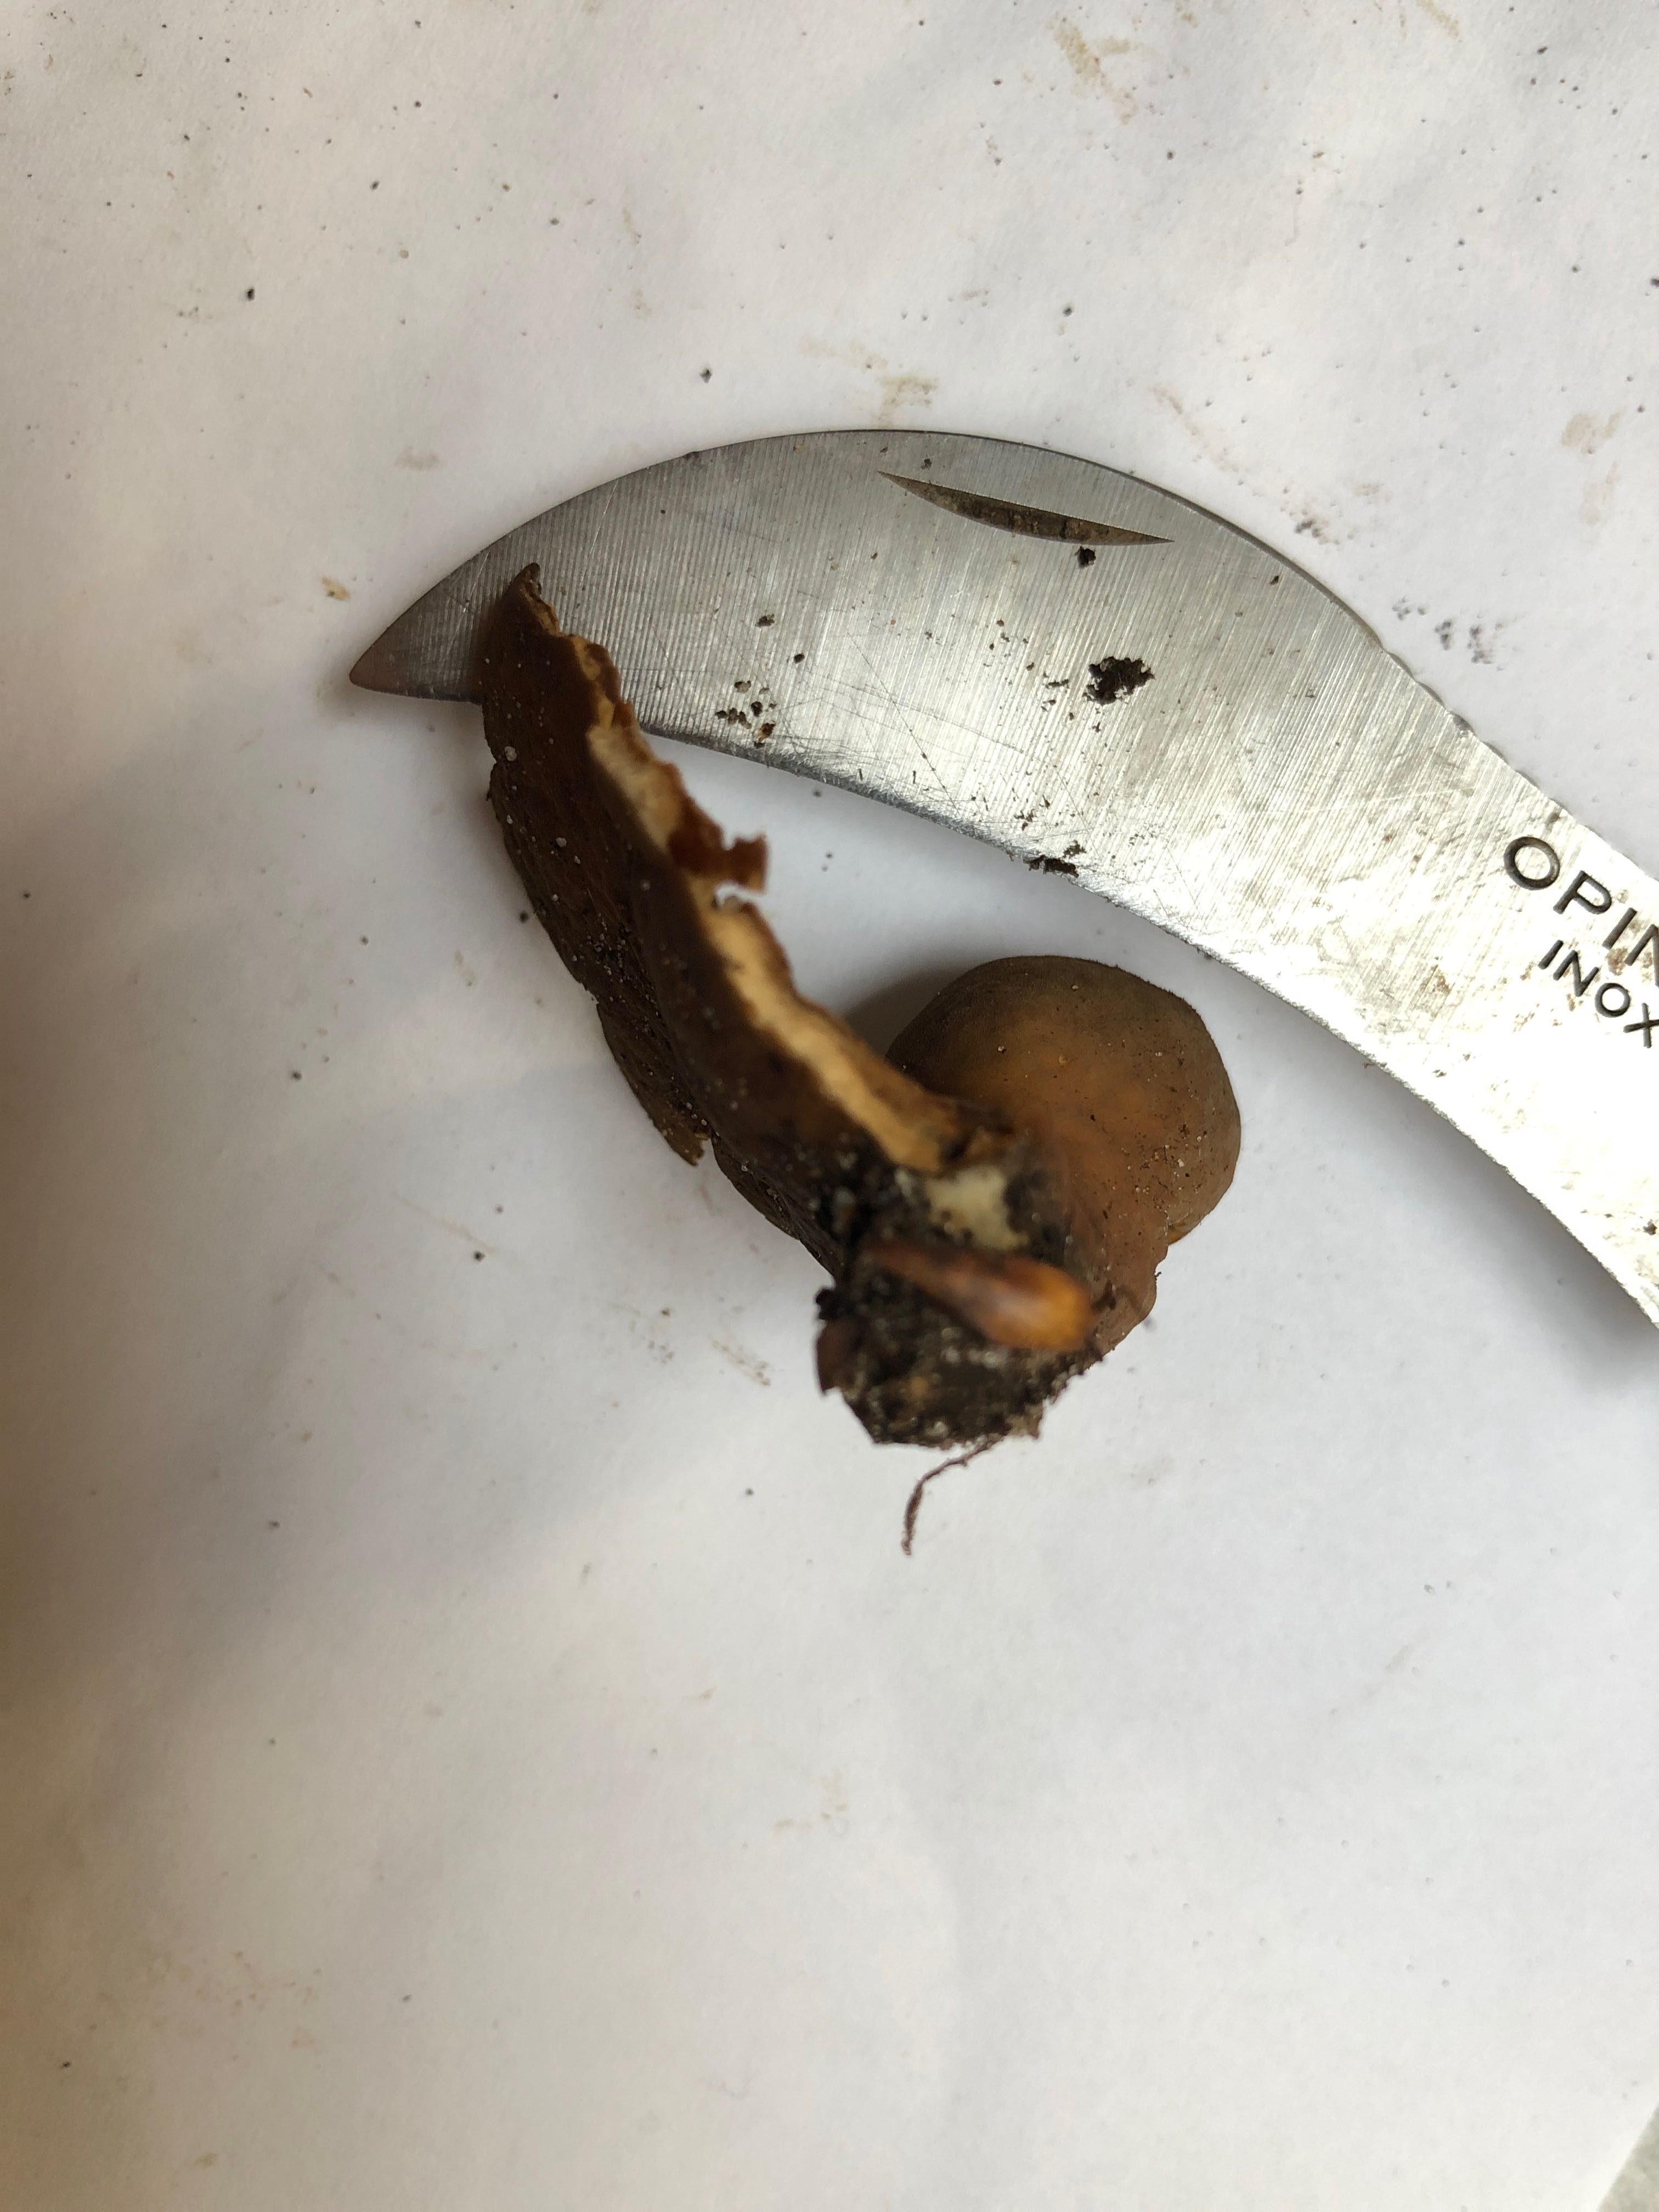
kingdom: Fungi
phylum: Ascomycota
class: Pezizomycetes
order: Pezizales
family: Otideaceae
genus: Otidea
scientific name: Otidea bufonia
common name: brun ørebæger
